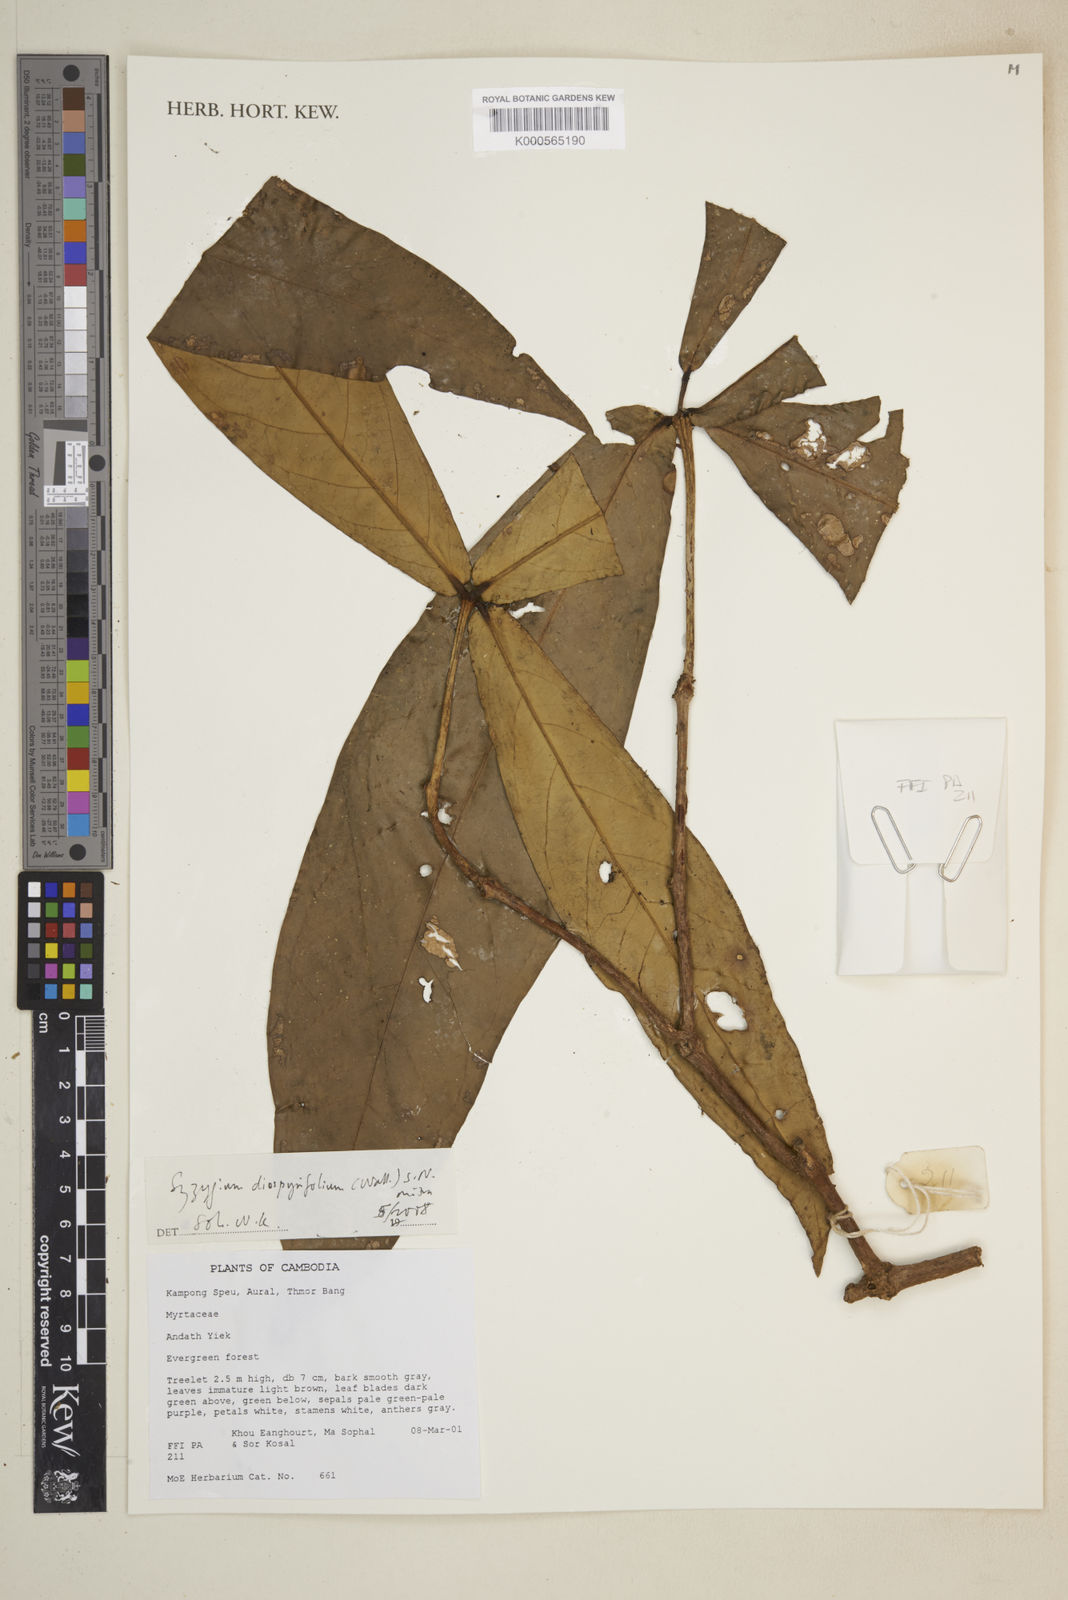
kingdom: Plantae
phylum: Tracheophyta
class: Magnoliopsida
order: Myrtales
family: Myrtaceae
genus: Syzygium
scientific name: Syzygium diospyrifolium
